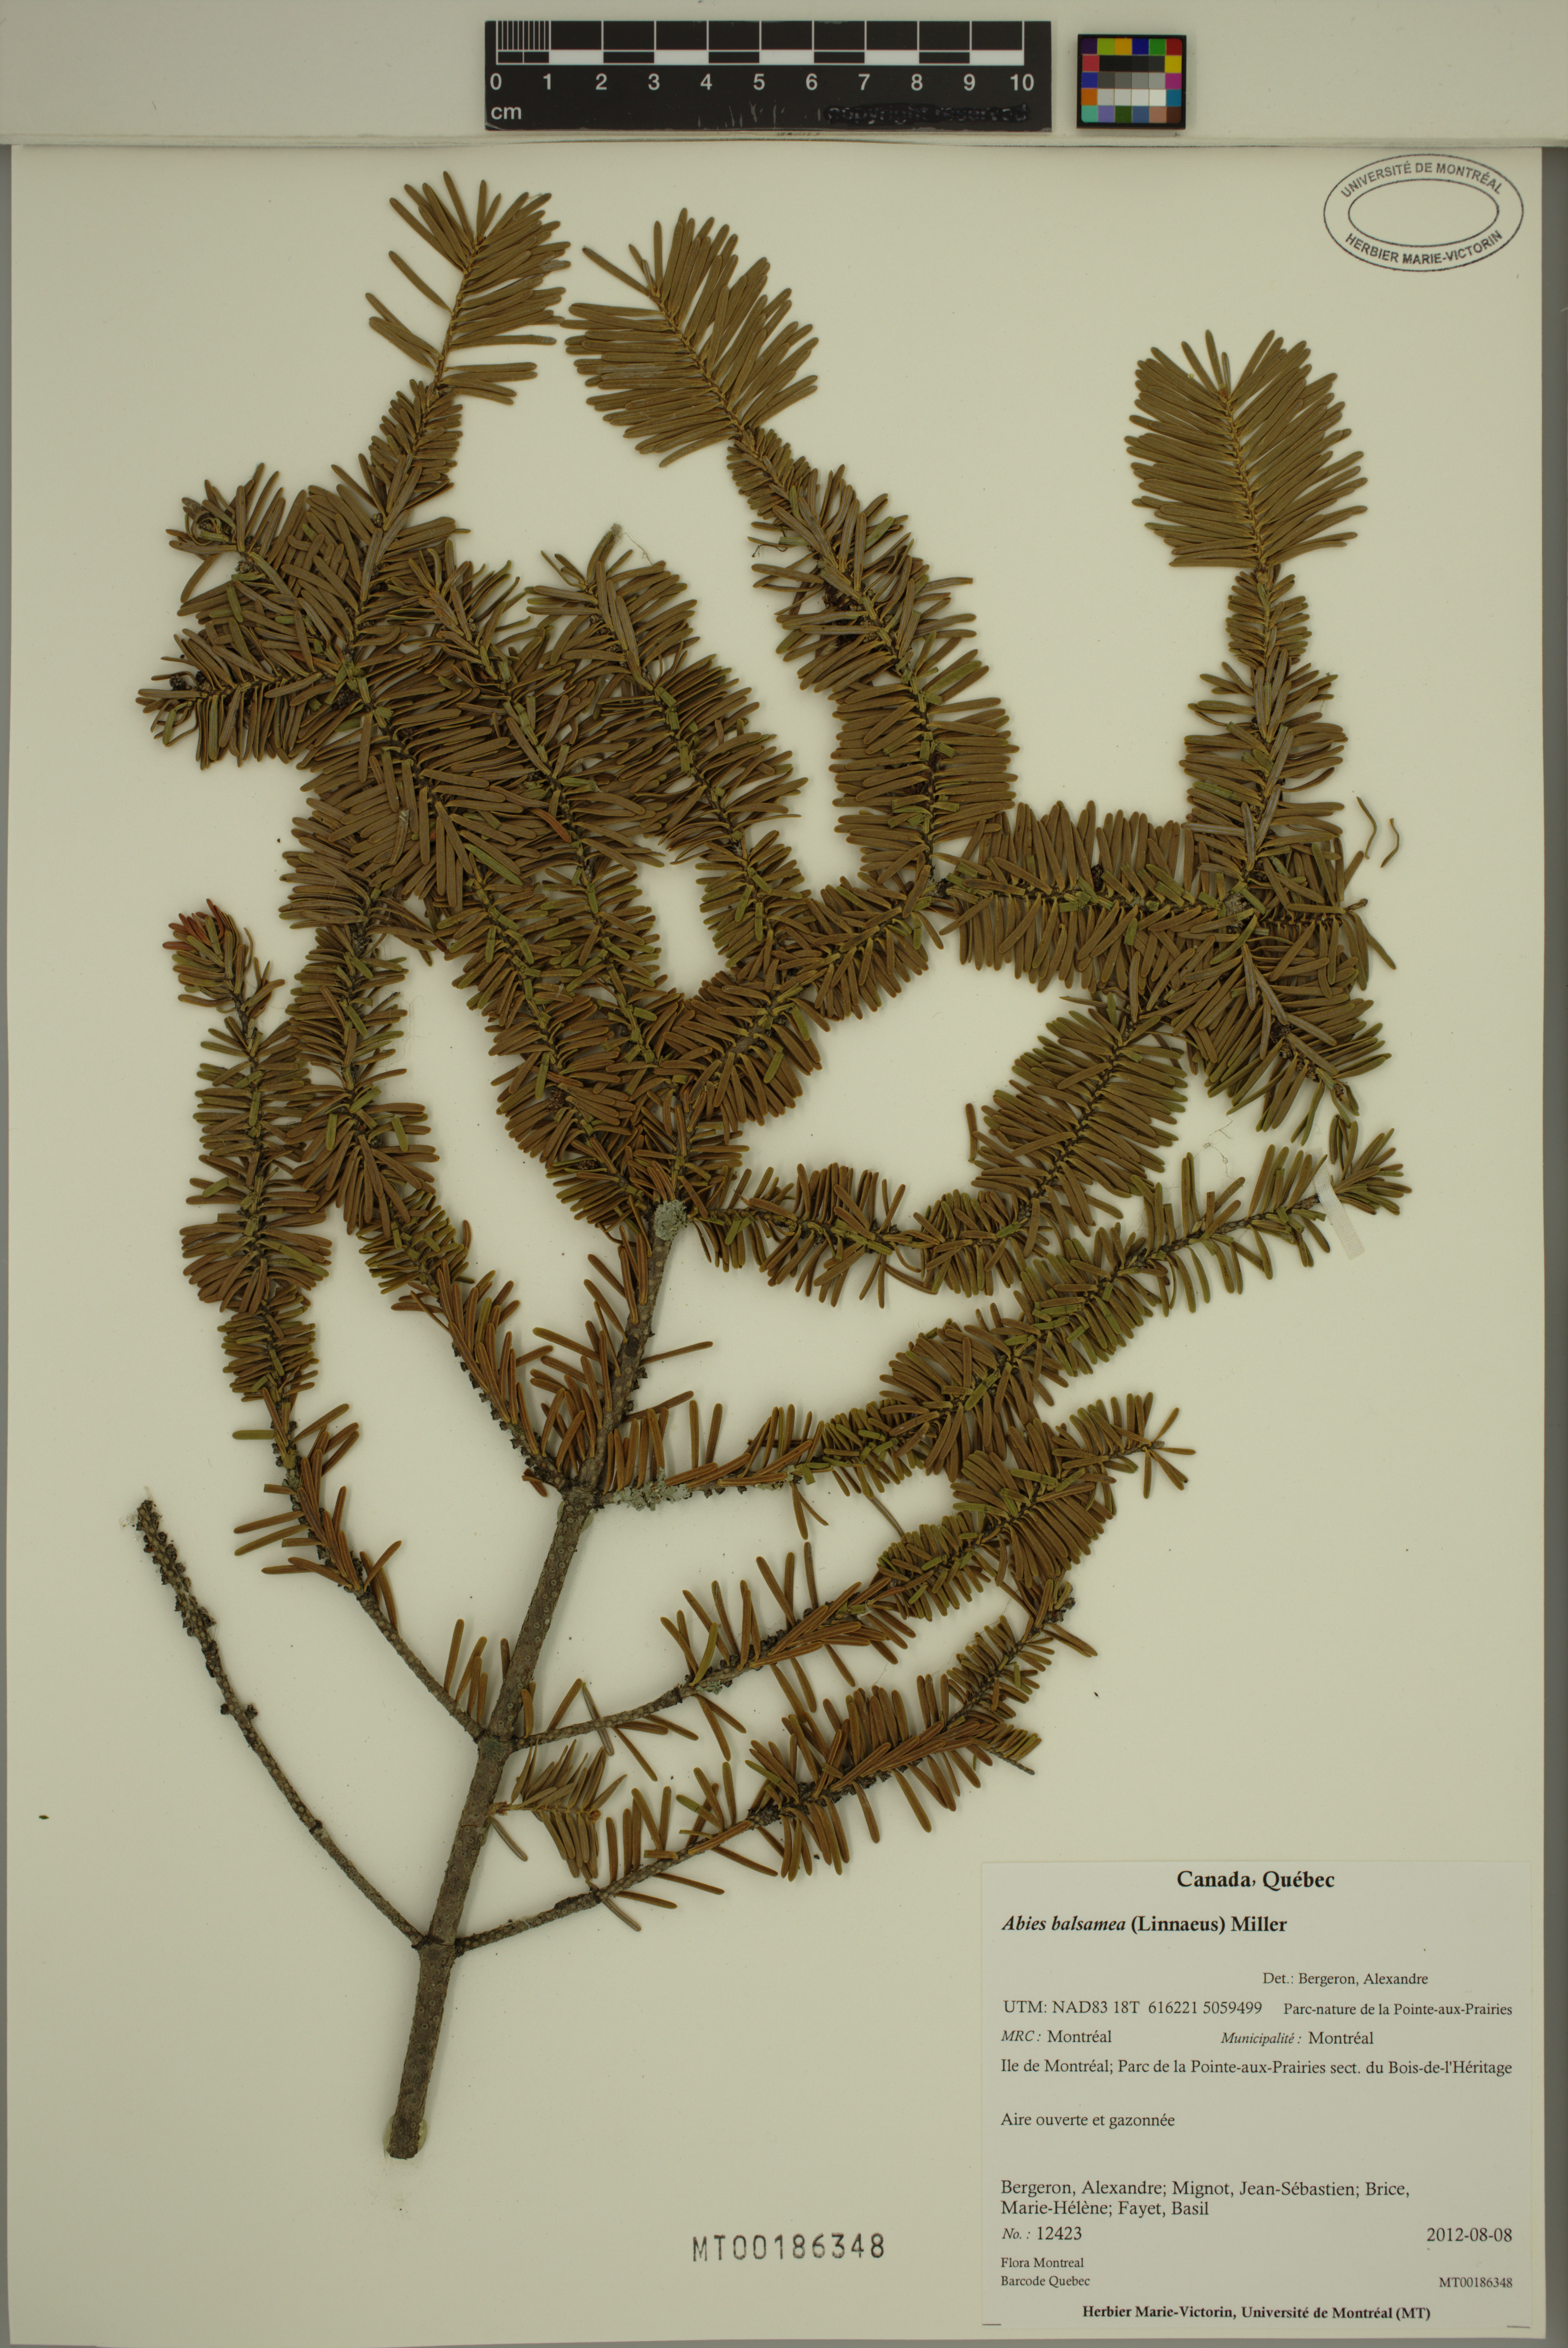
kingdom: Plantae
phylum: Tracheophyta
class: Pinopsida
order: Pinales
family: Pinaceae
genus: Abies
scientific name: Abies balsamea
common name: Balsam fir
